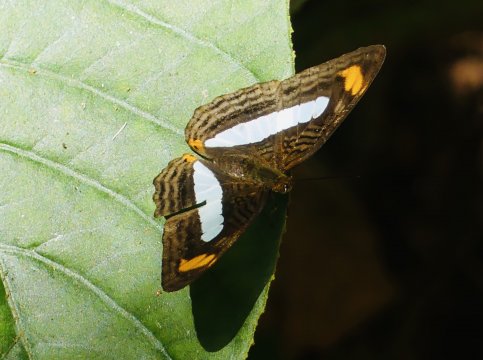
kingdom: Animalia
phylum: Arthropoda
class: Insecta
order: Lepidoptera
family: Nymphalidae
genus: Limenitis
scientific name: Limenitis Adelpha iphiclus
